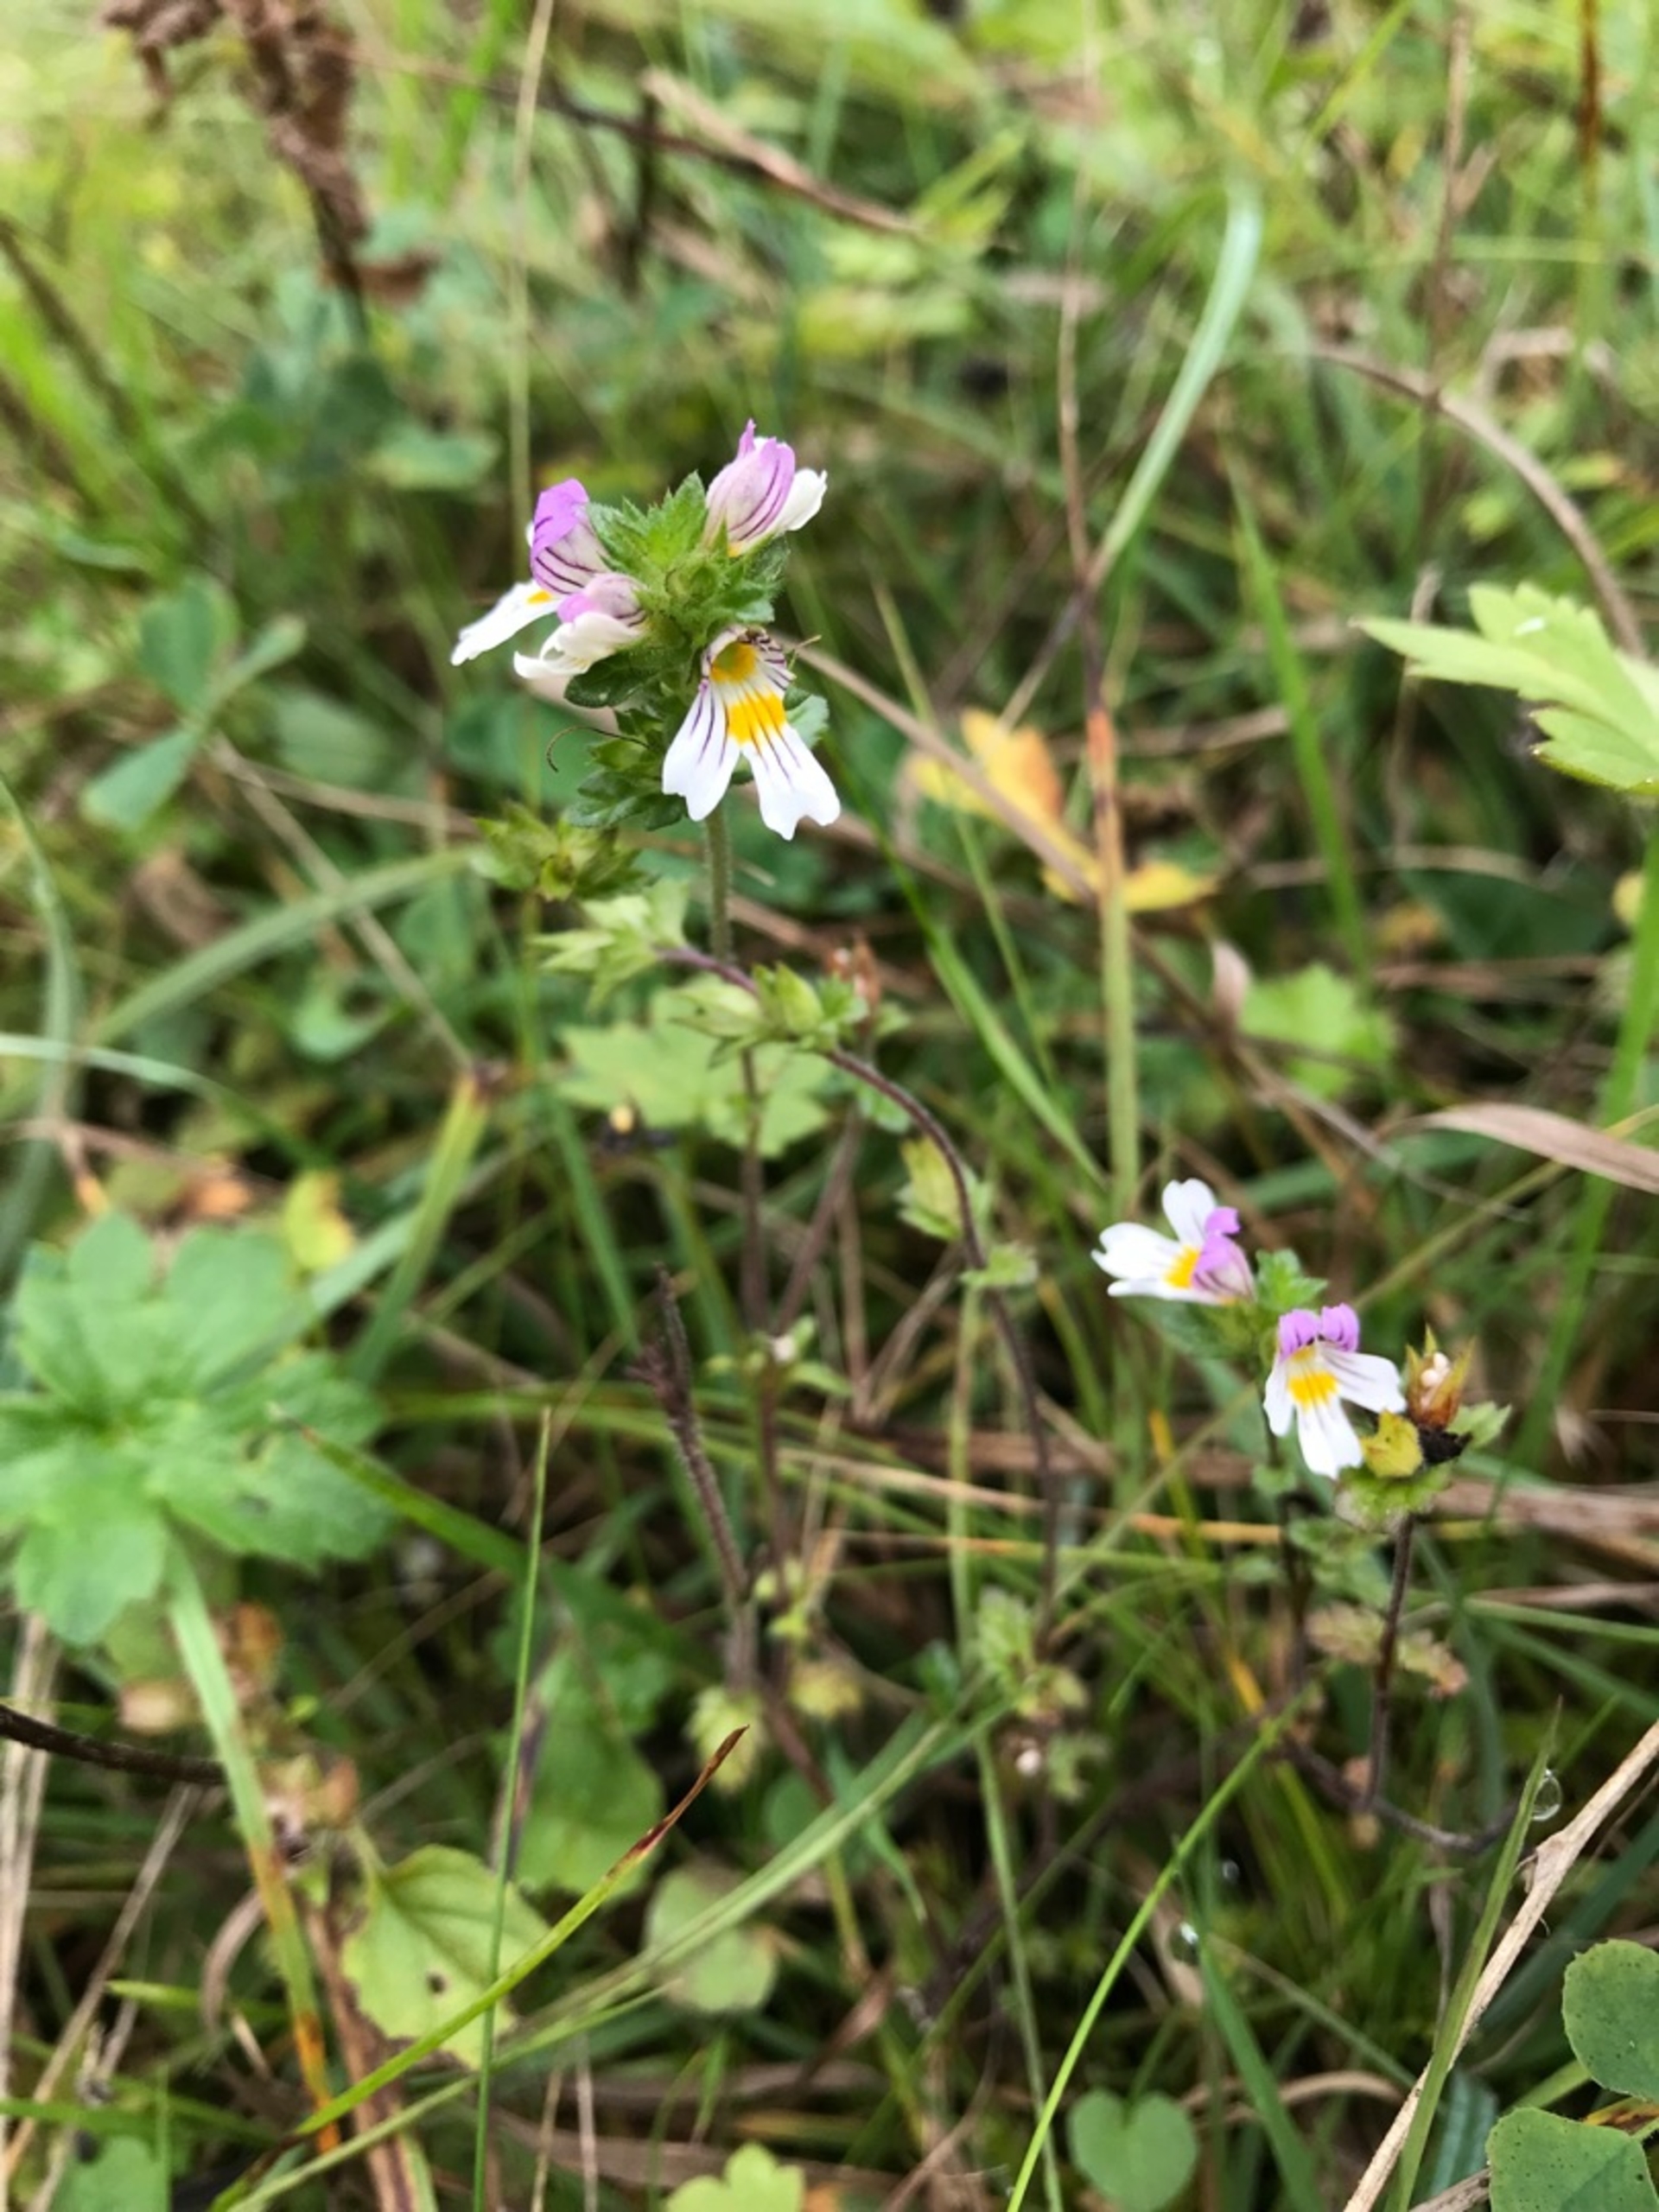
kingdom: Plantae
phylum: Tracheophyta
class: Magnoliopsida
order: Lamiales
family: Orobanchaceae
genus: Euphrasia
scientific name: Euphrasia officinalis
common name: Kalk-øjentrøst
